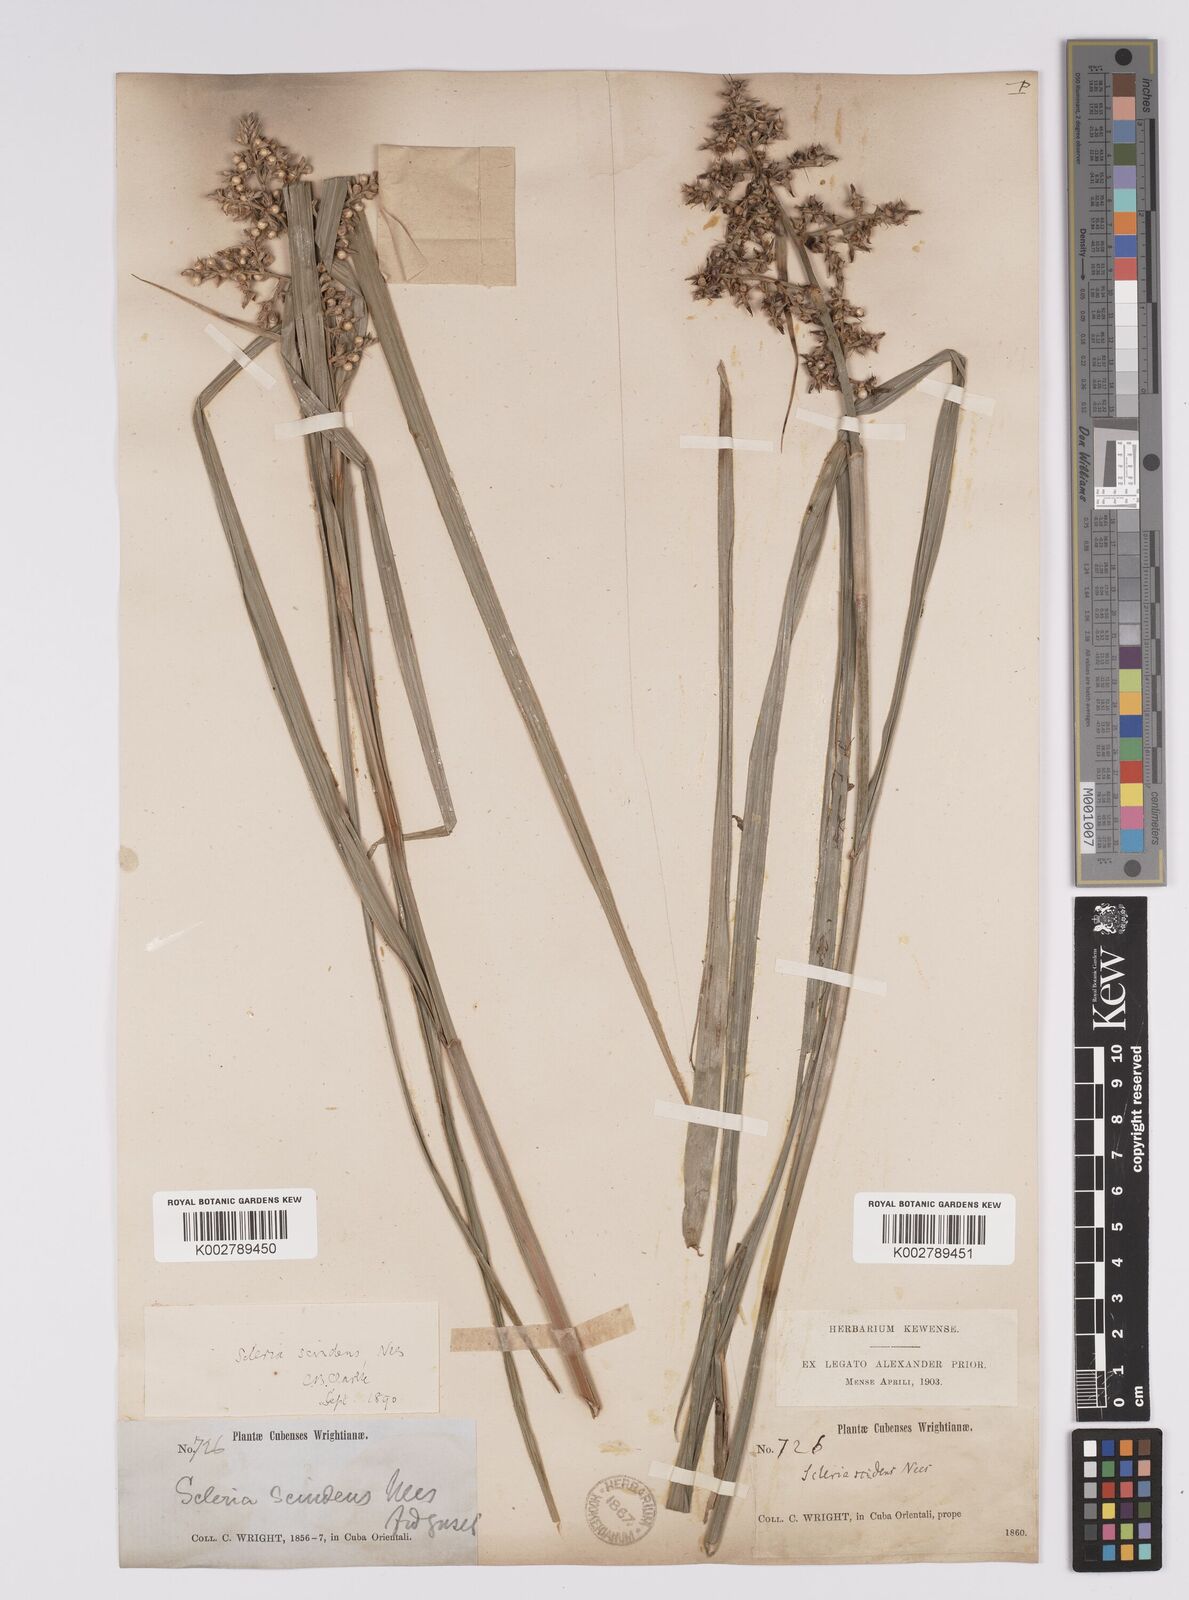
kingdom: Plantae
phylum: Tracheophyta
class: Liliopsida
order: Poales
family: Cyperaceae
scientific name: Cyperaceae
